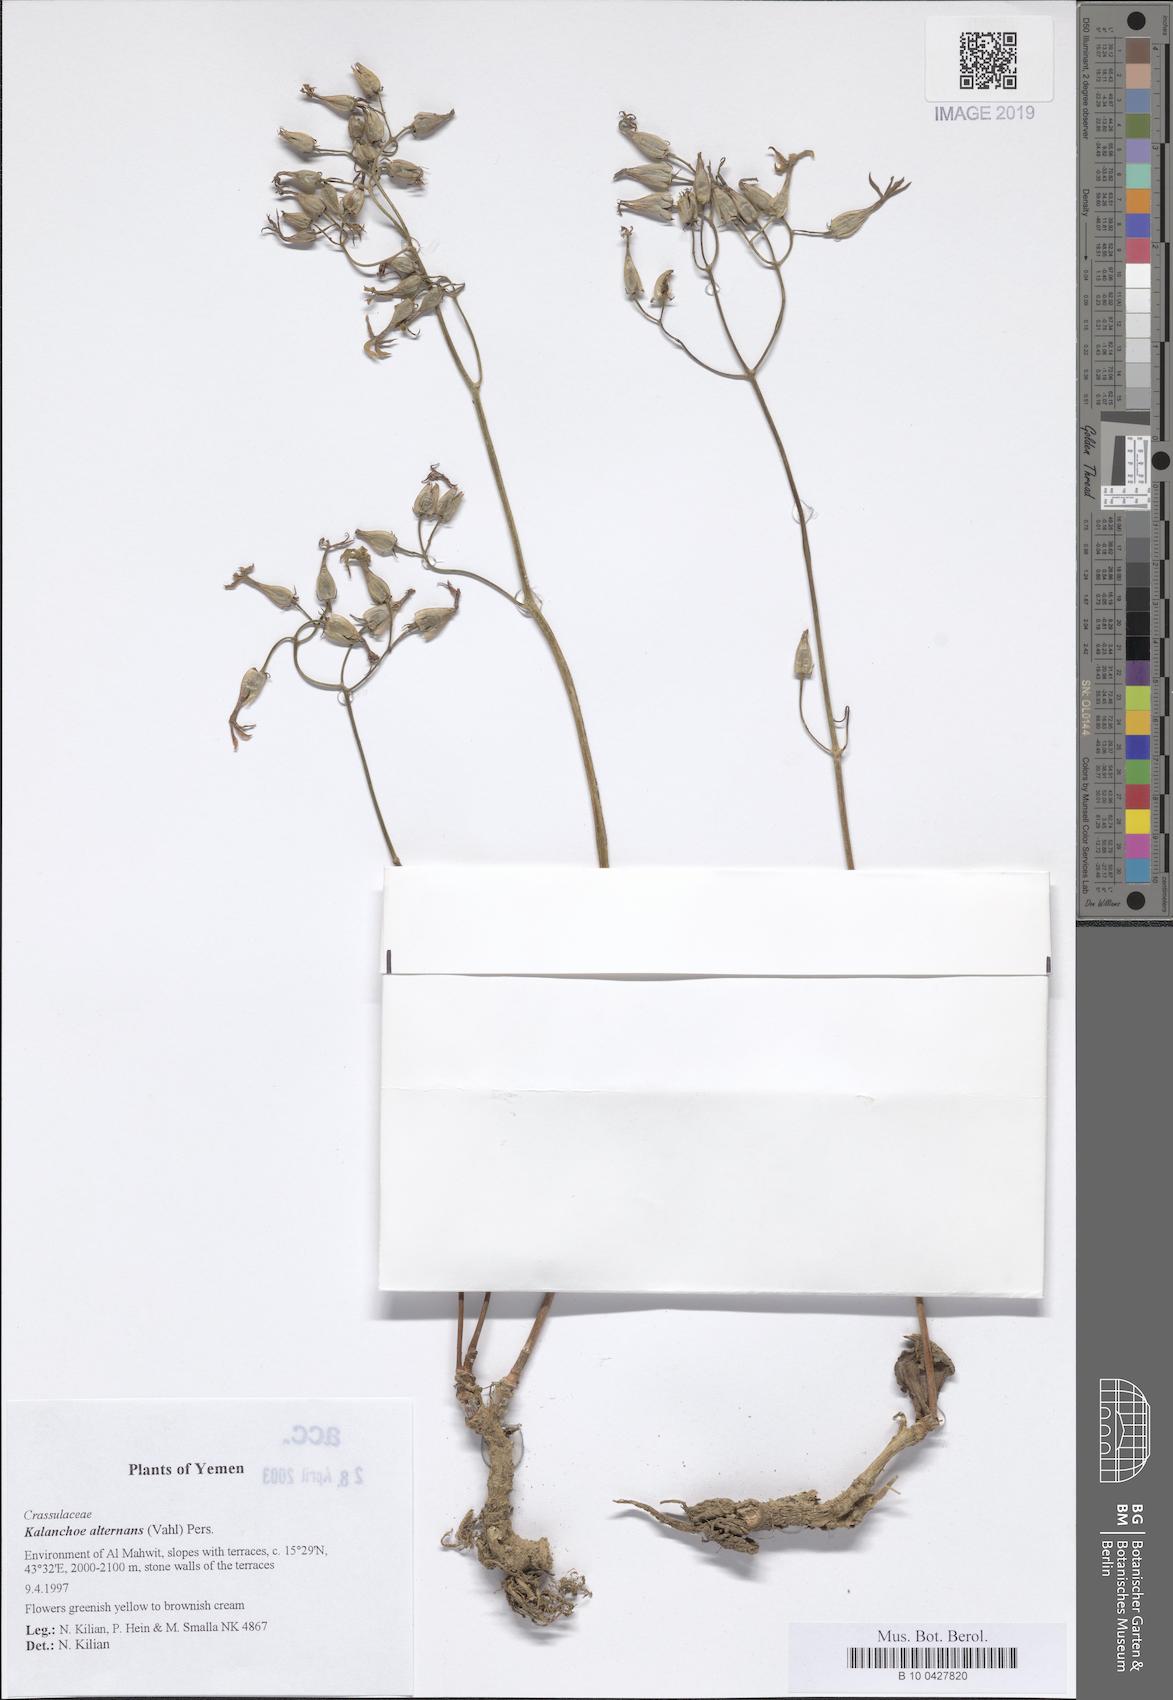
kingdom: Plantae
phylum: Tracheophyta
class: Magnoliopsida
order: Saxifragales
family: Crassulaceae
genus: Kalanchoe
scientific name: Kalanchoe alternans
